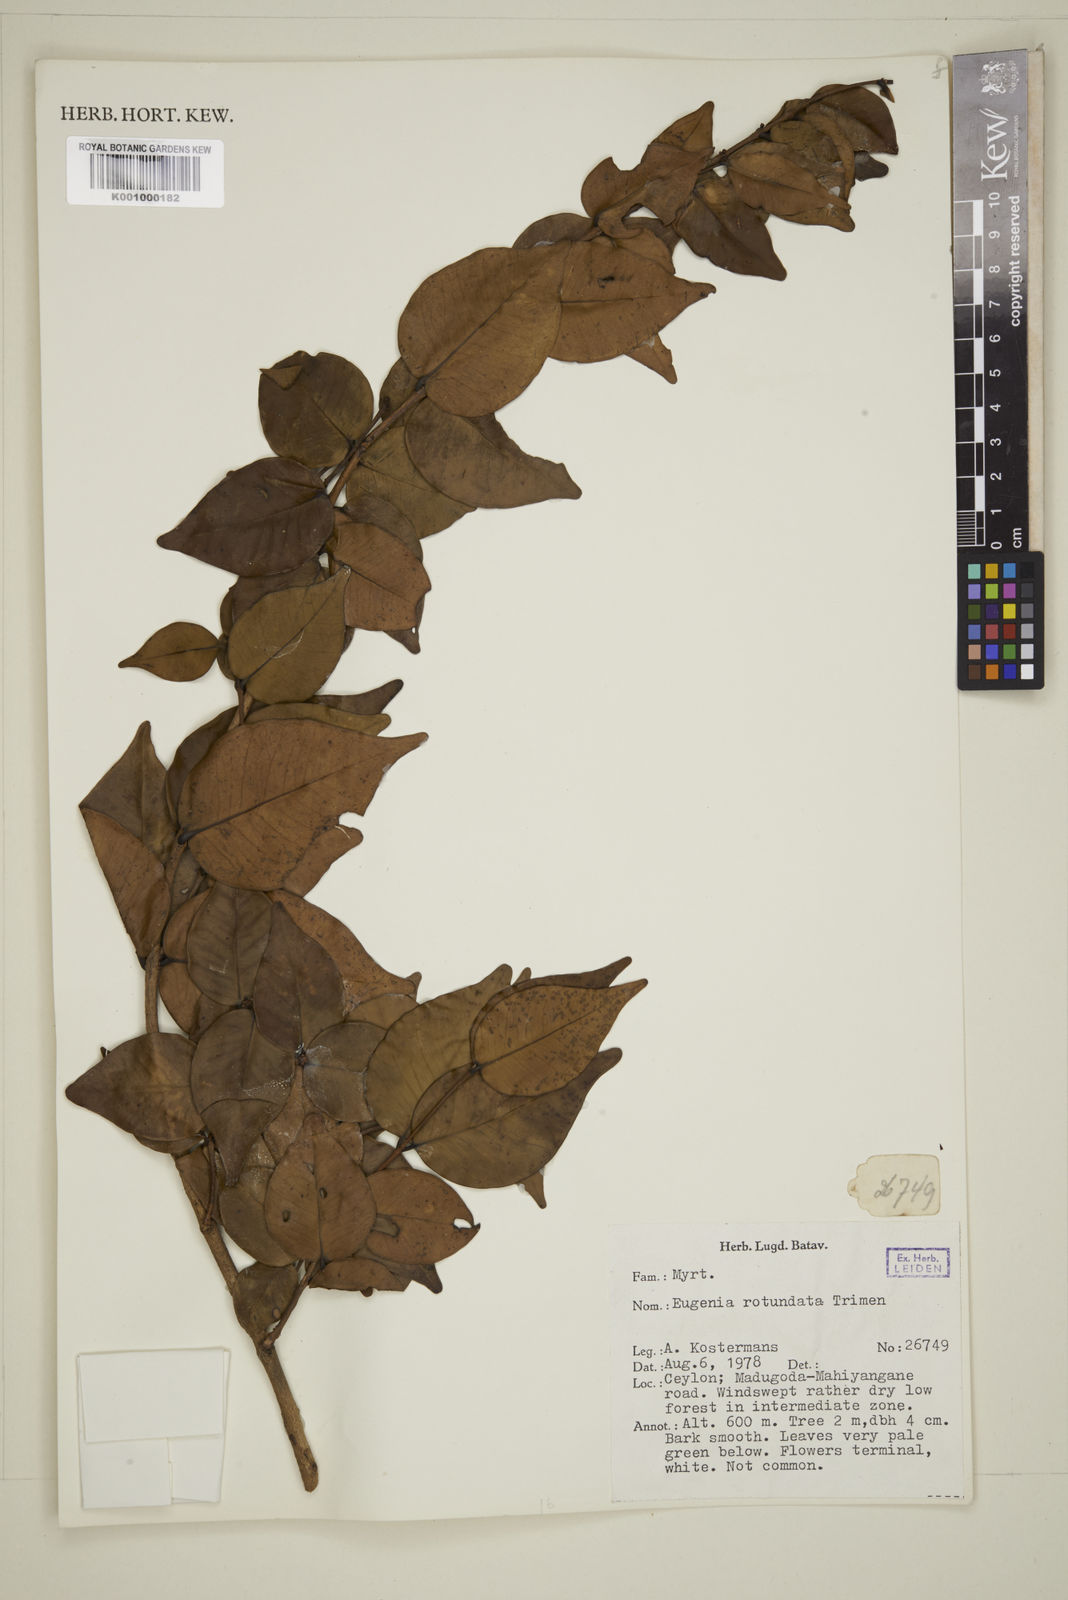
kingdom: Plantae
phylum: Tracheophyta
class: Magnoliopsida
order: Myrtales
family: Myrtaceae
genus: Eugenia
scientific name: Eugenia rotundata
